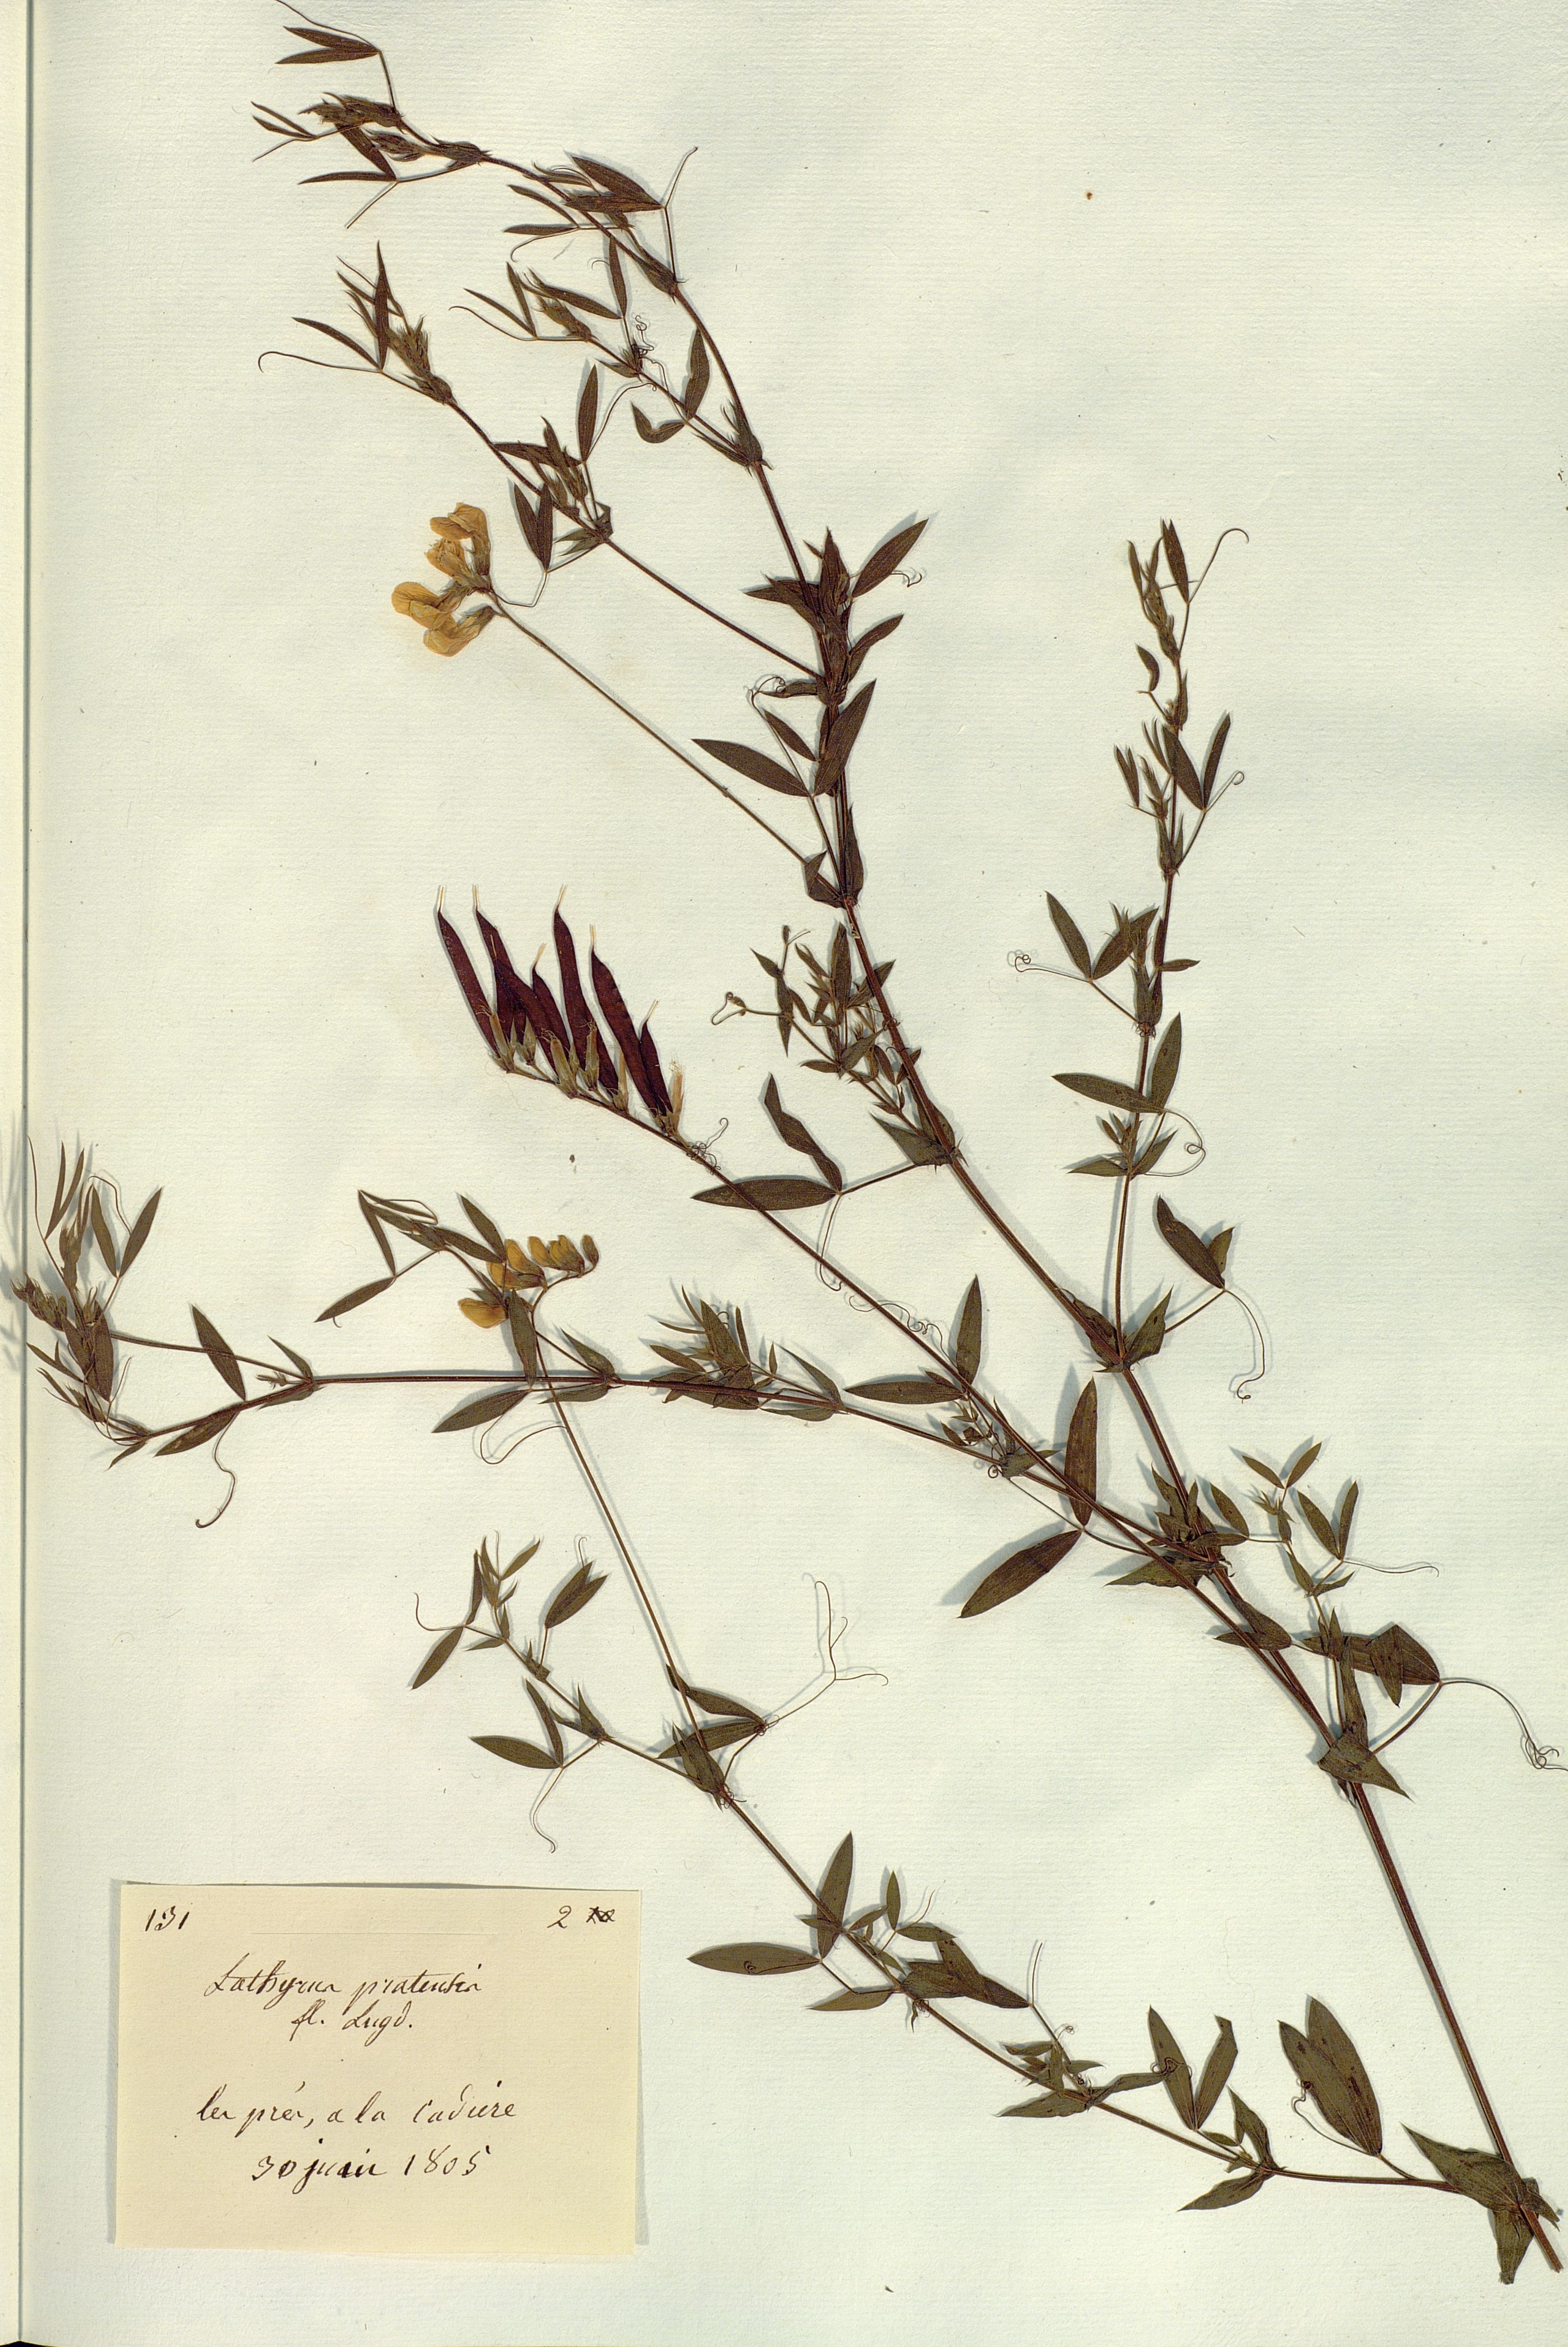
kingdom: Plantae
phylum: Tracheophyta
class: Magnoliopsida
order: Fabales
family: Fabaceae
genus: Lathyrus
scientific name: Lathyrus pratensis
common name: Meadow vetchling
